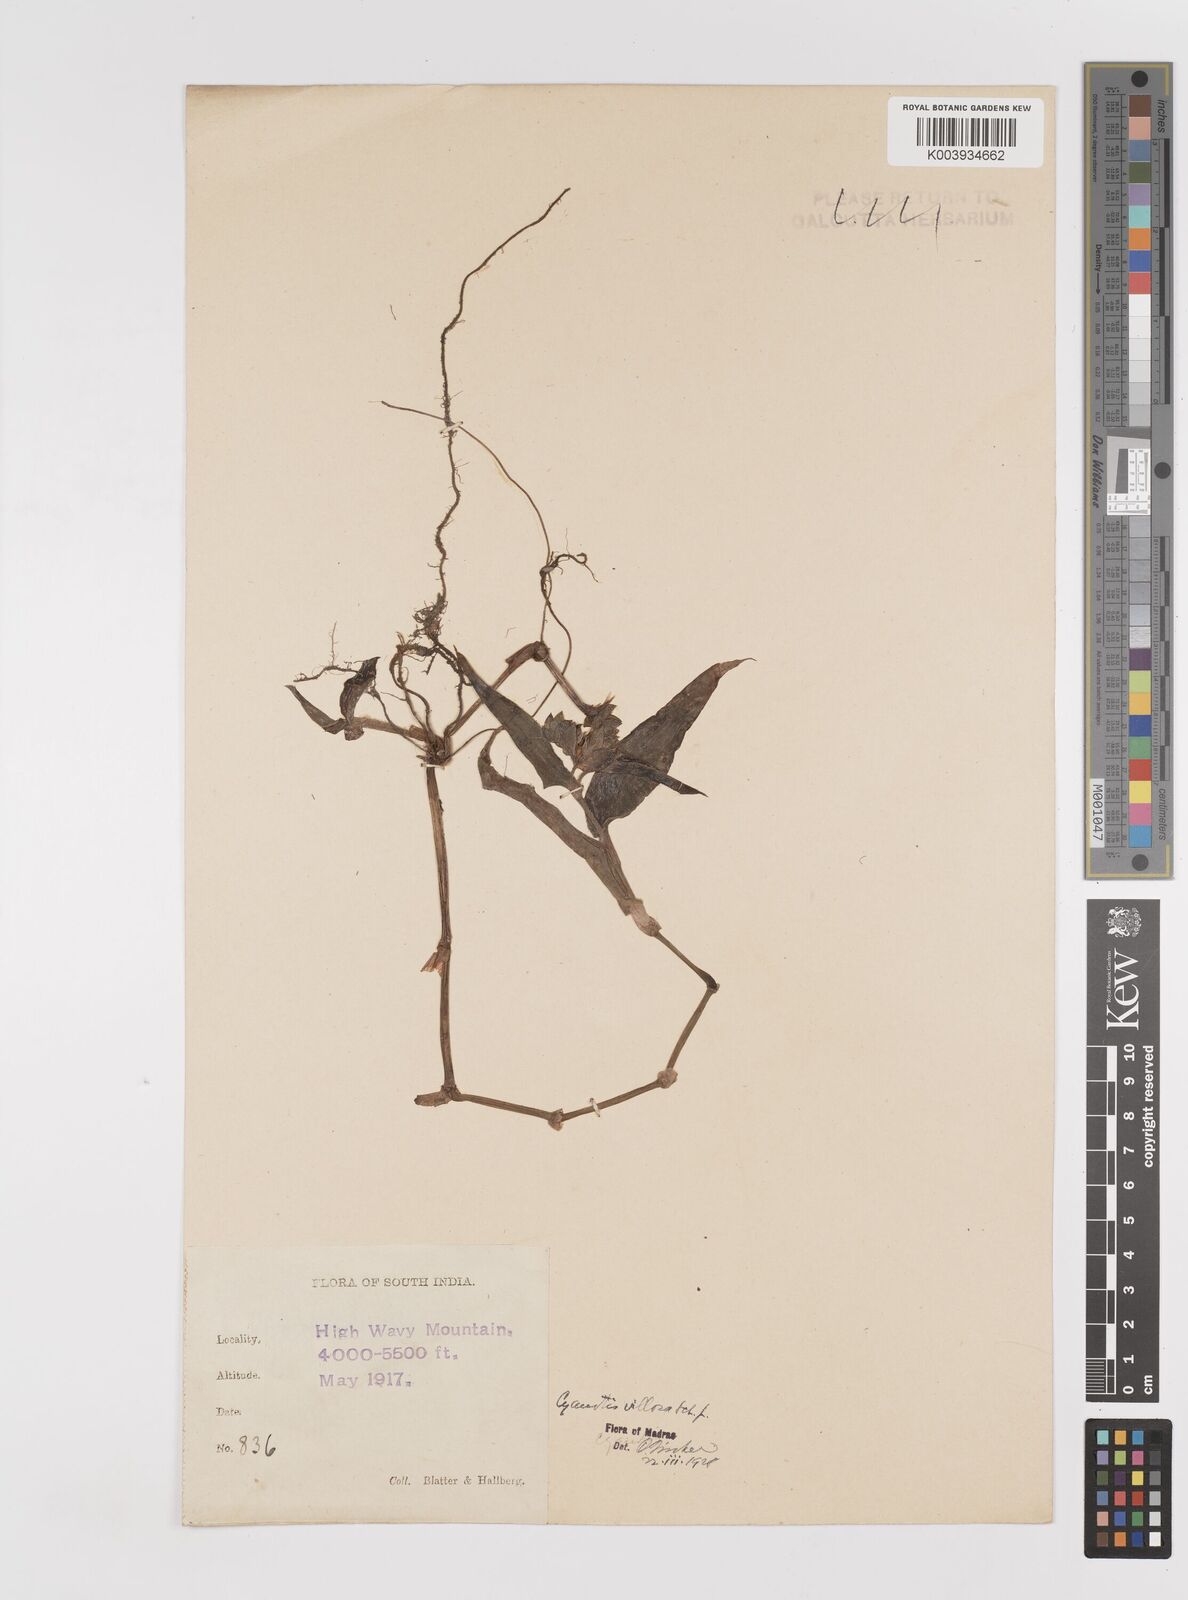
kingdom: Plantae
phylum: Tracheophyta
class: Liliopsida
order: Commelinales
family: Commelinaceae
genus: Cyanotis
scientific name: Cyanotis villosa
